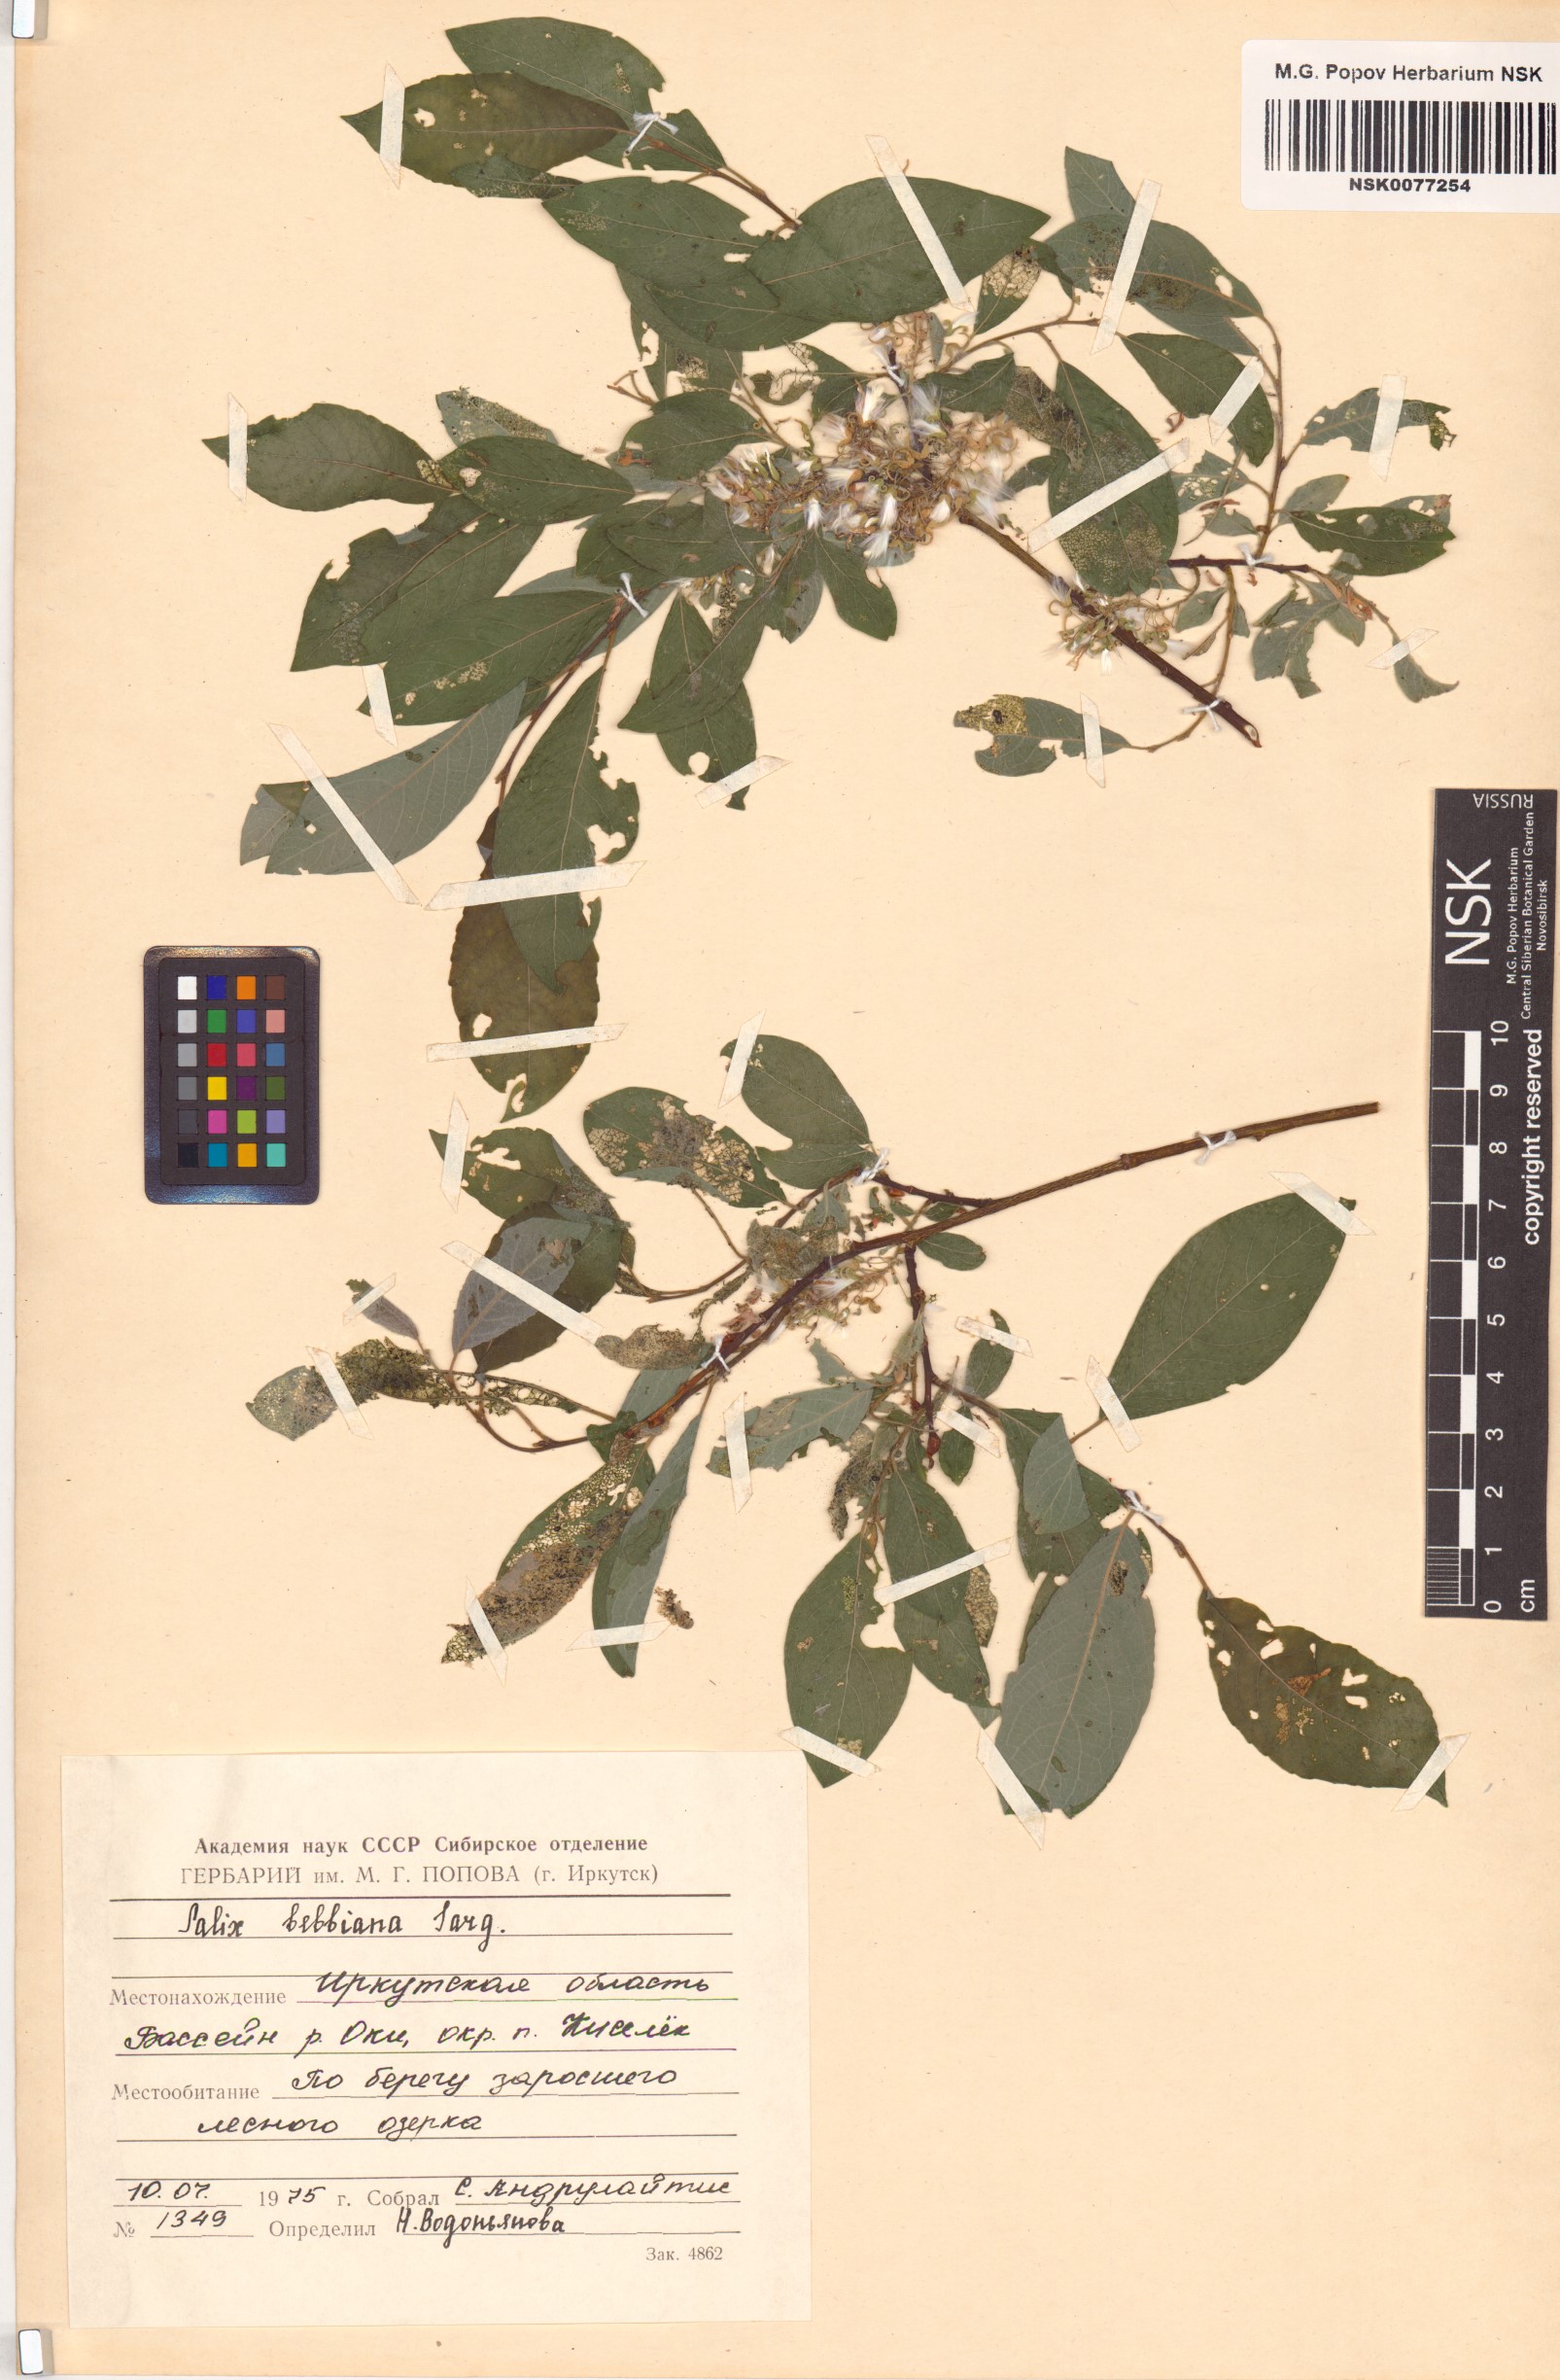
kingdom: Plantae
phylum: Tracheophyta
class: Magnoliopsida
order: Malpighiales
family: Salicaceae
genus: Salix
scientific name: Salix bebbiana
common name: Bebb's willow
